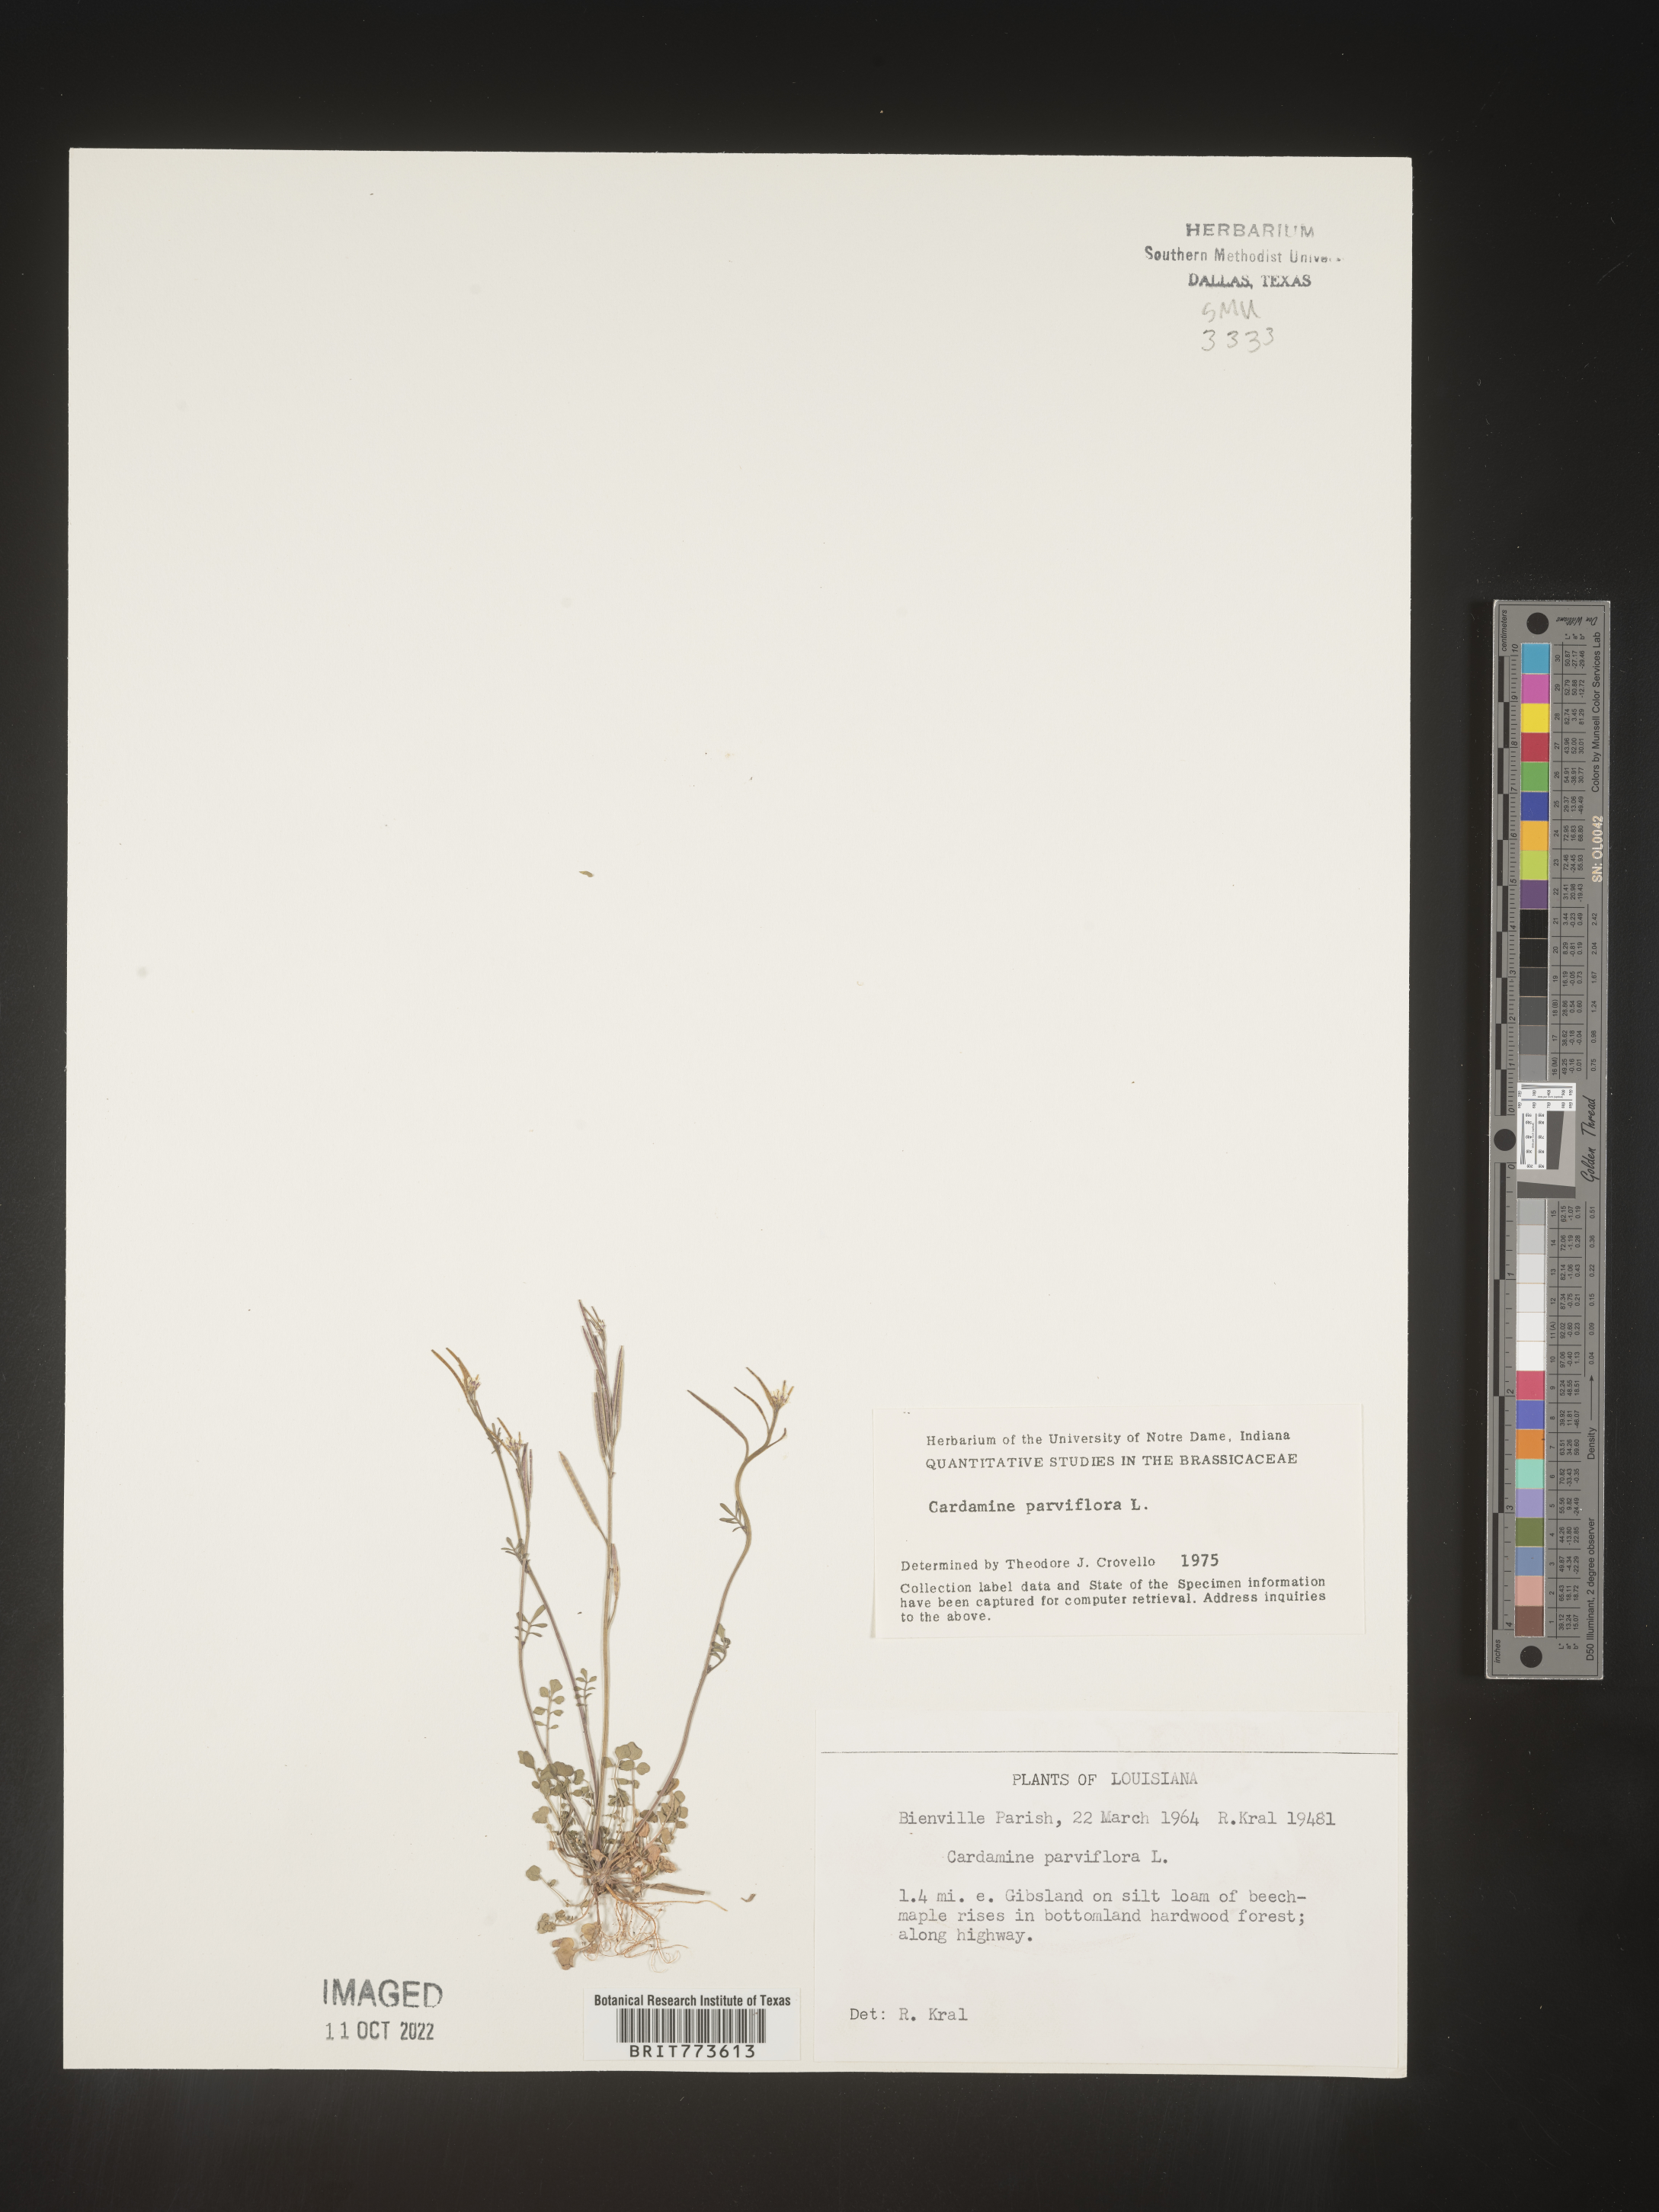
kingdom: Plantae
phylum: Tracheophyta
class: Magnoliopsida
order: Brassicales
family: Brassicaceae
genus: Cardamine
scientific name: Cardamine parviflora
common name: Sand bittercress
